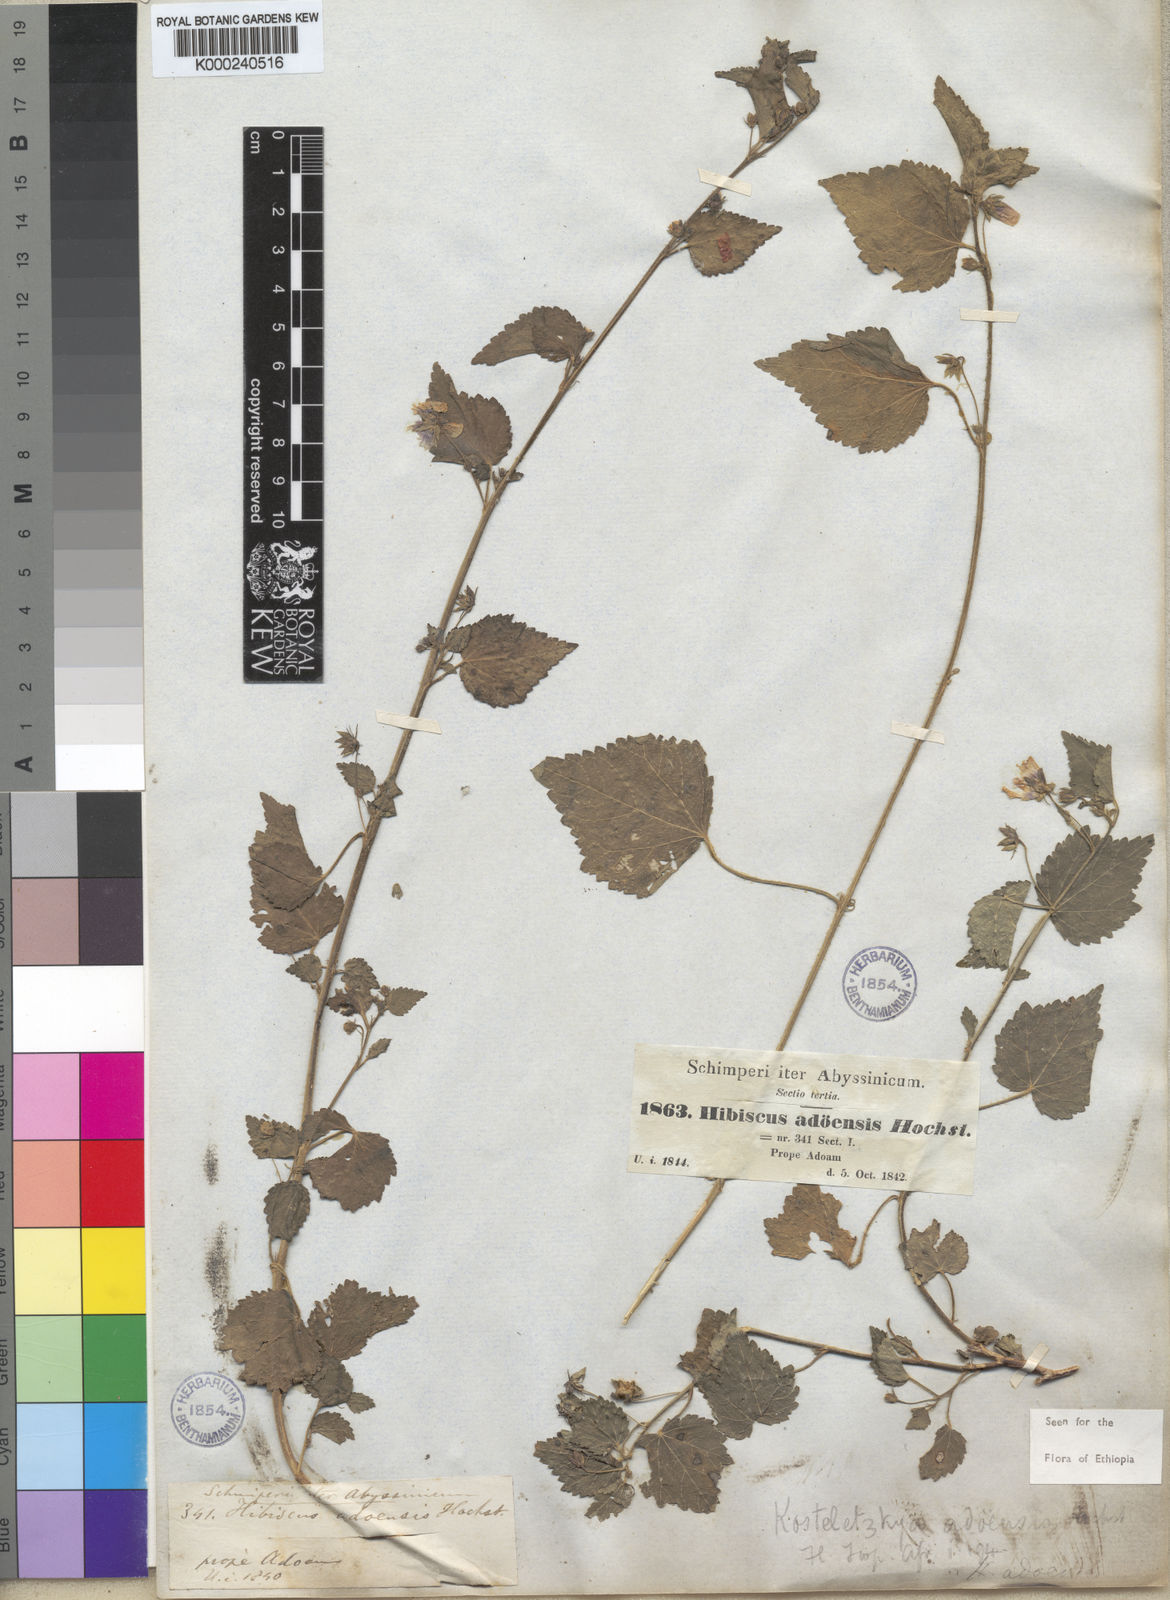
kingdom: Plantae
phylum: Tracheophyta
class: Magnoliopsida
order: Malvales
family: Malvaceae
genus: Kosteletzkya
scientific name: Kosteletzkya adoensis
